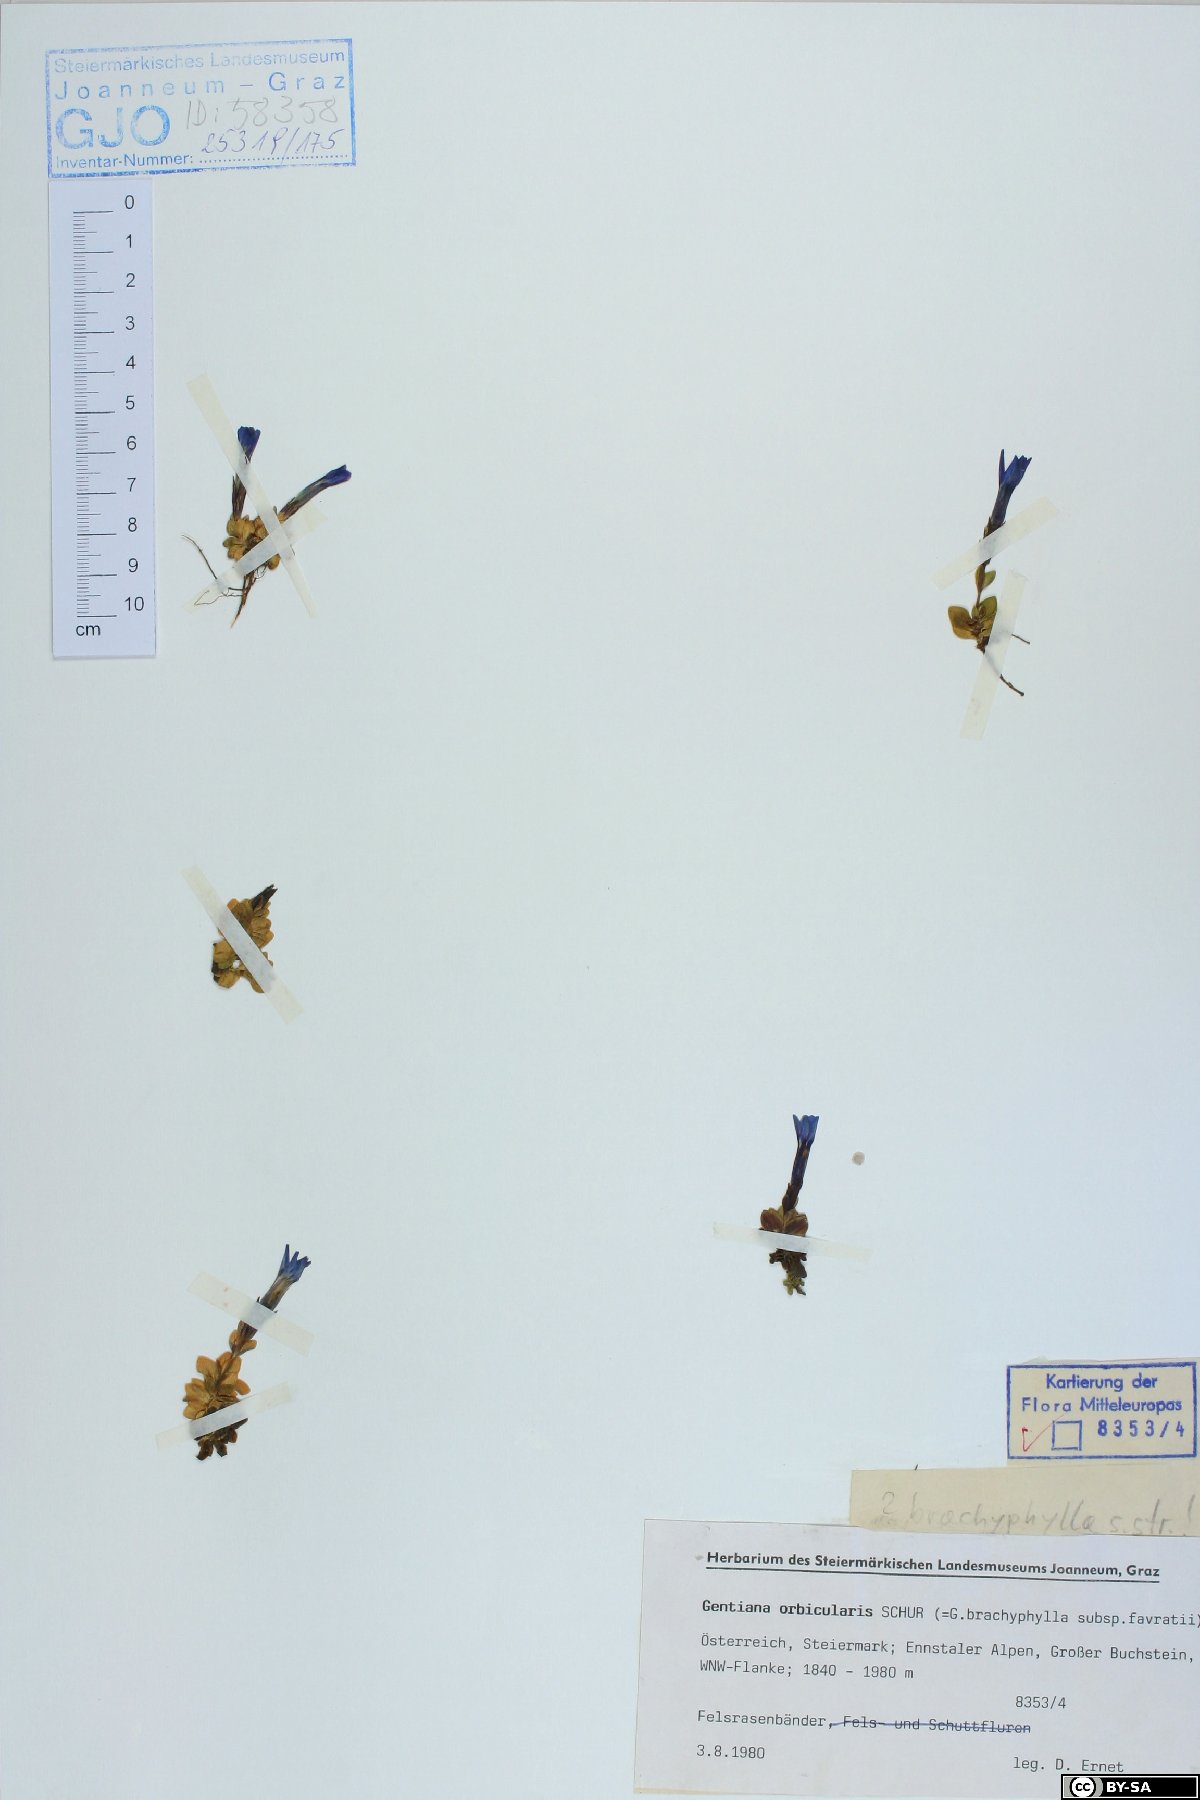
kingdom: Plantae
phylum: Tracheophyta
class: Magnoliopsida
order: Gentianales
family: Gentianaceae
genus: Gentiana
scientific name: Gentiana orbicularis
